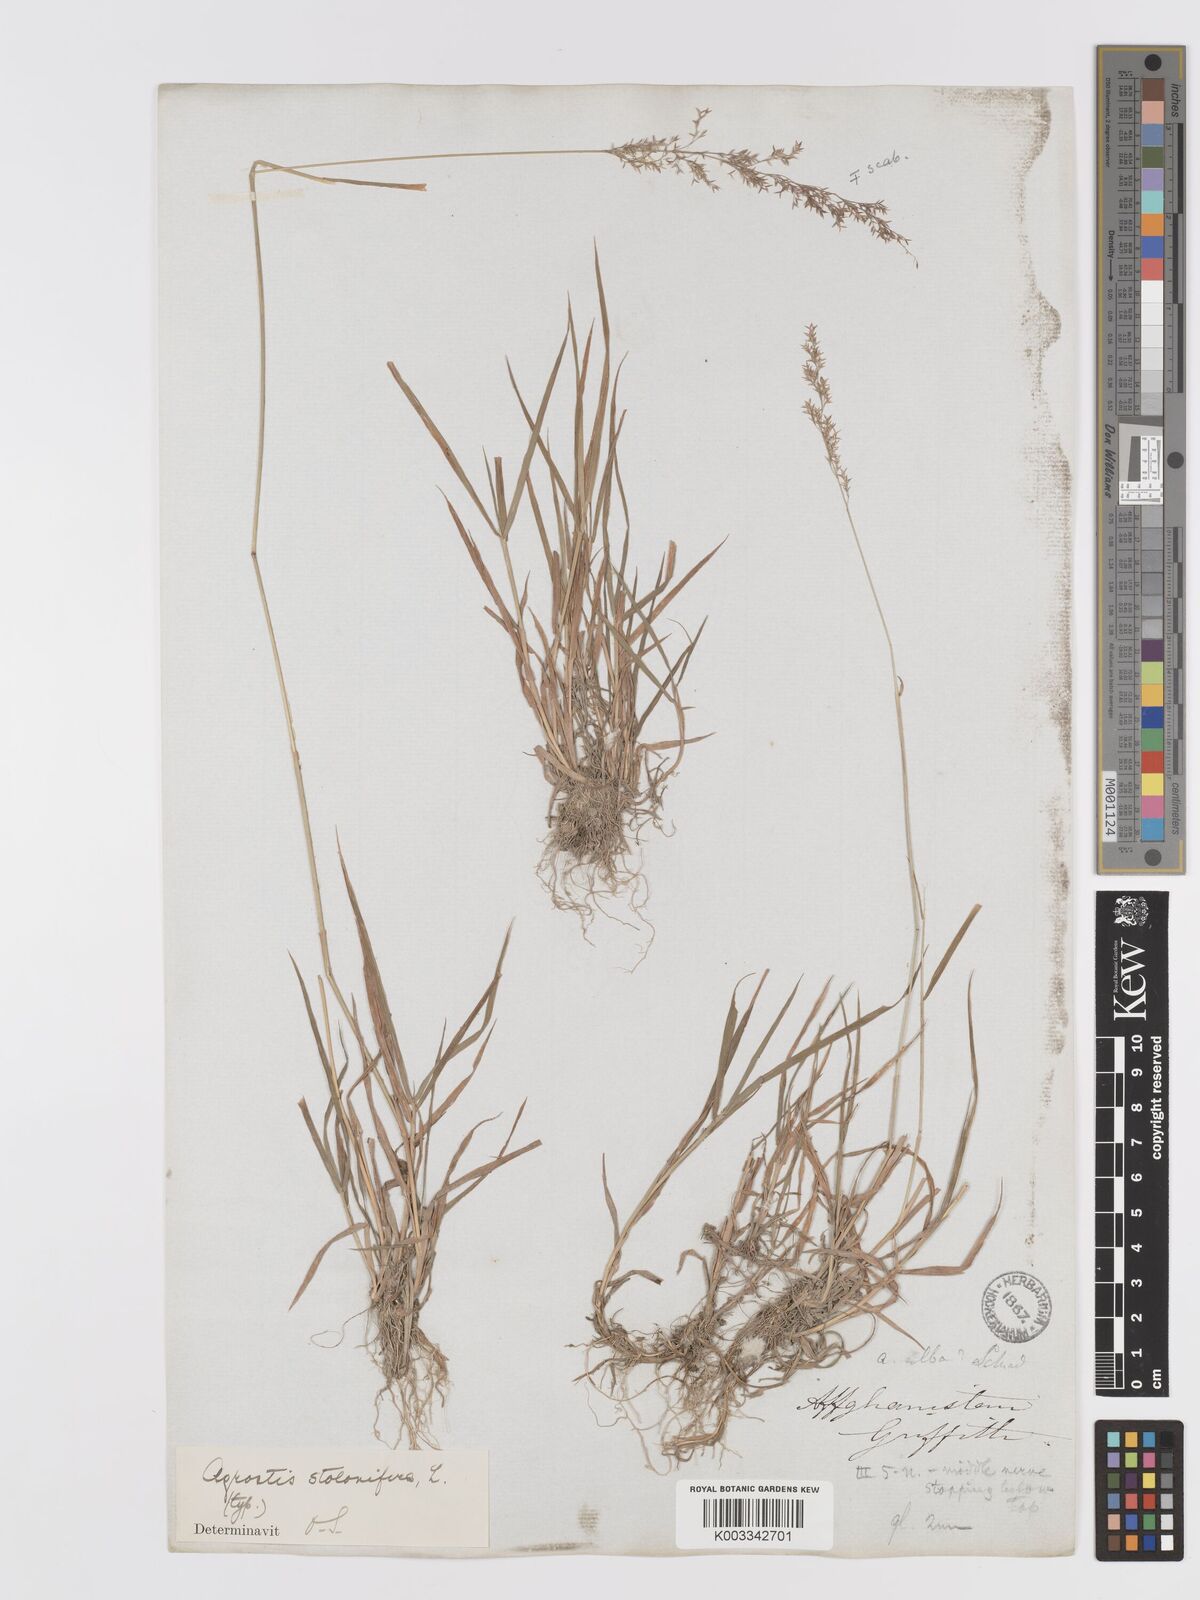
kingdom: Plantae
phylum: Tracheophyta
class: Liliopsida
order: Poales
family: Poaceae
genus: Agrostis
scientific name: Agrostis gigantea
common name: Black bent
